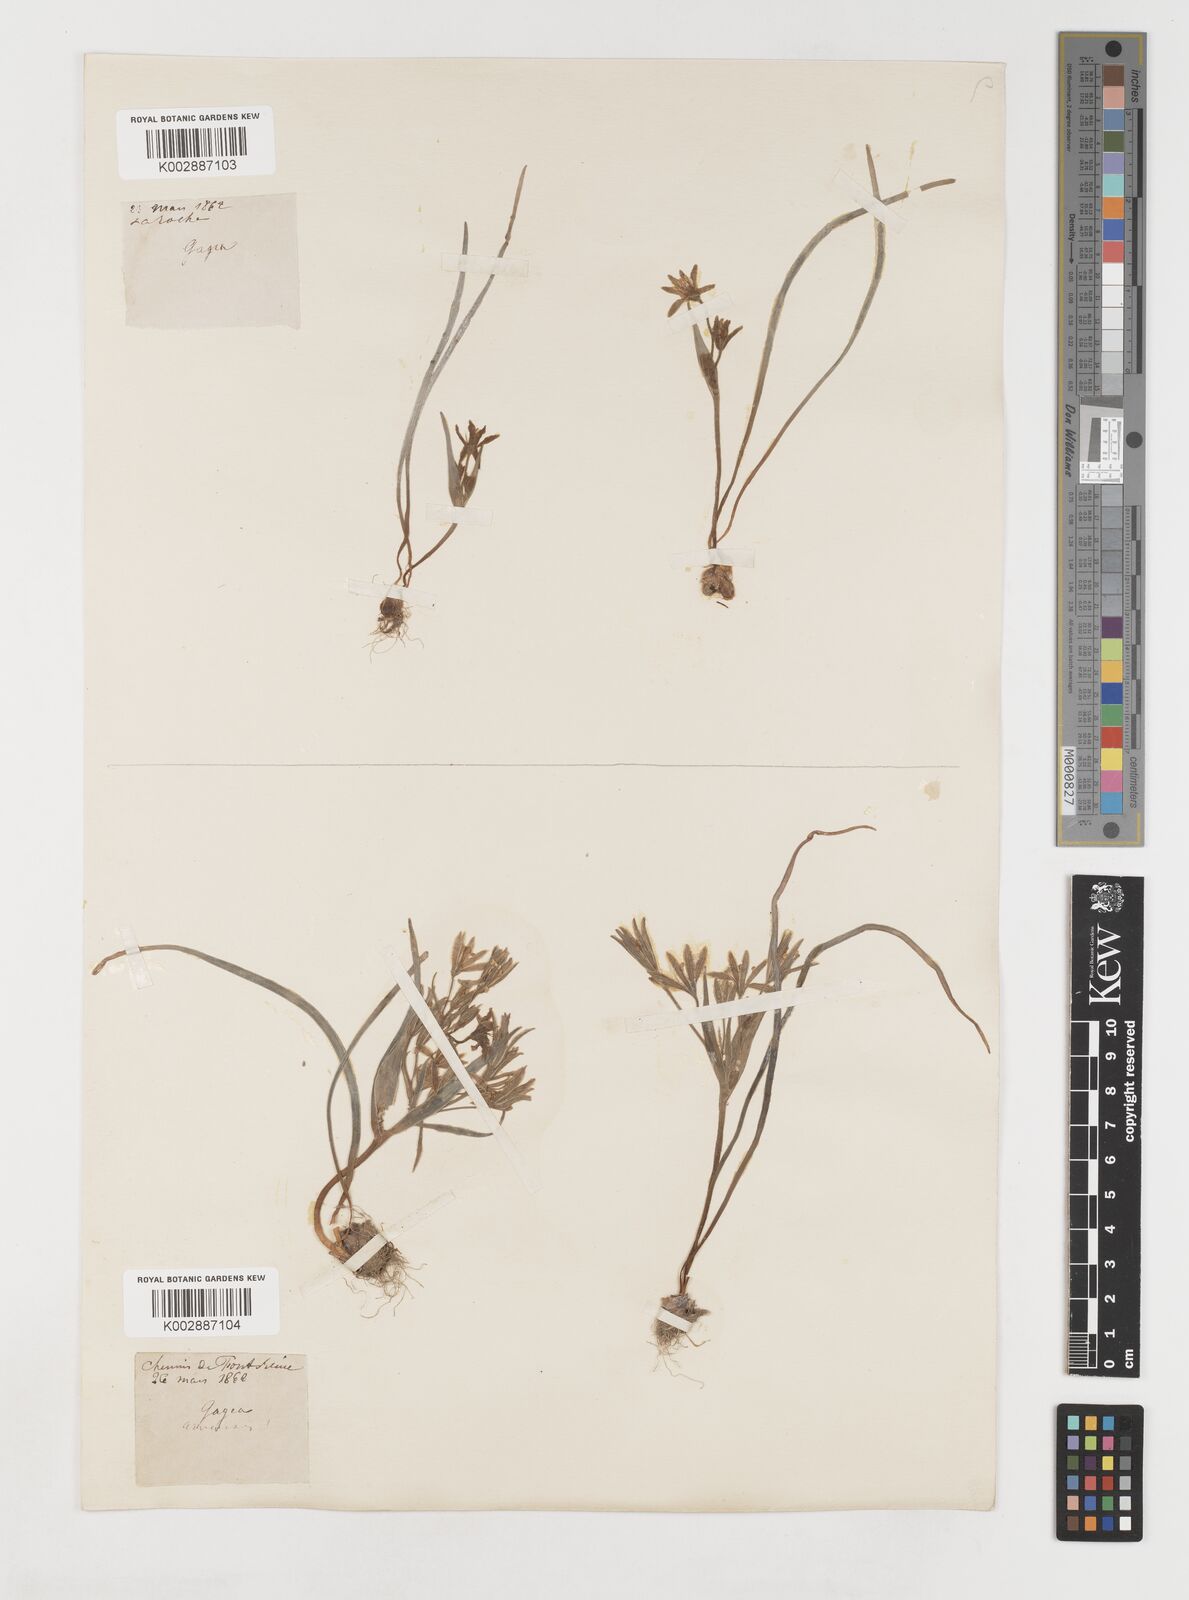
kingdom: Plantae
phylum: Tracheophyta
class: Liliopsida
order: Liliales
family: Liliaceae
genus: Gagea
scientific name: Gagea minima
